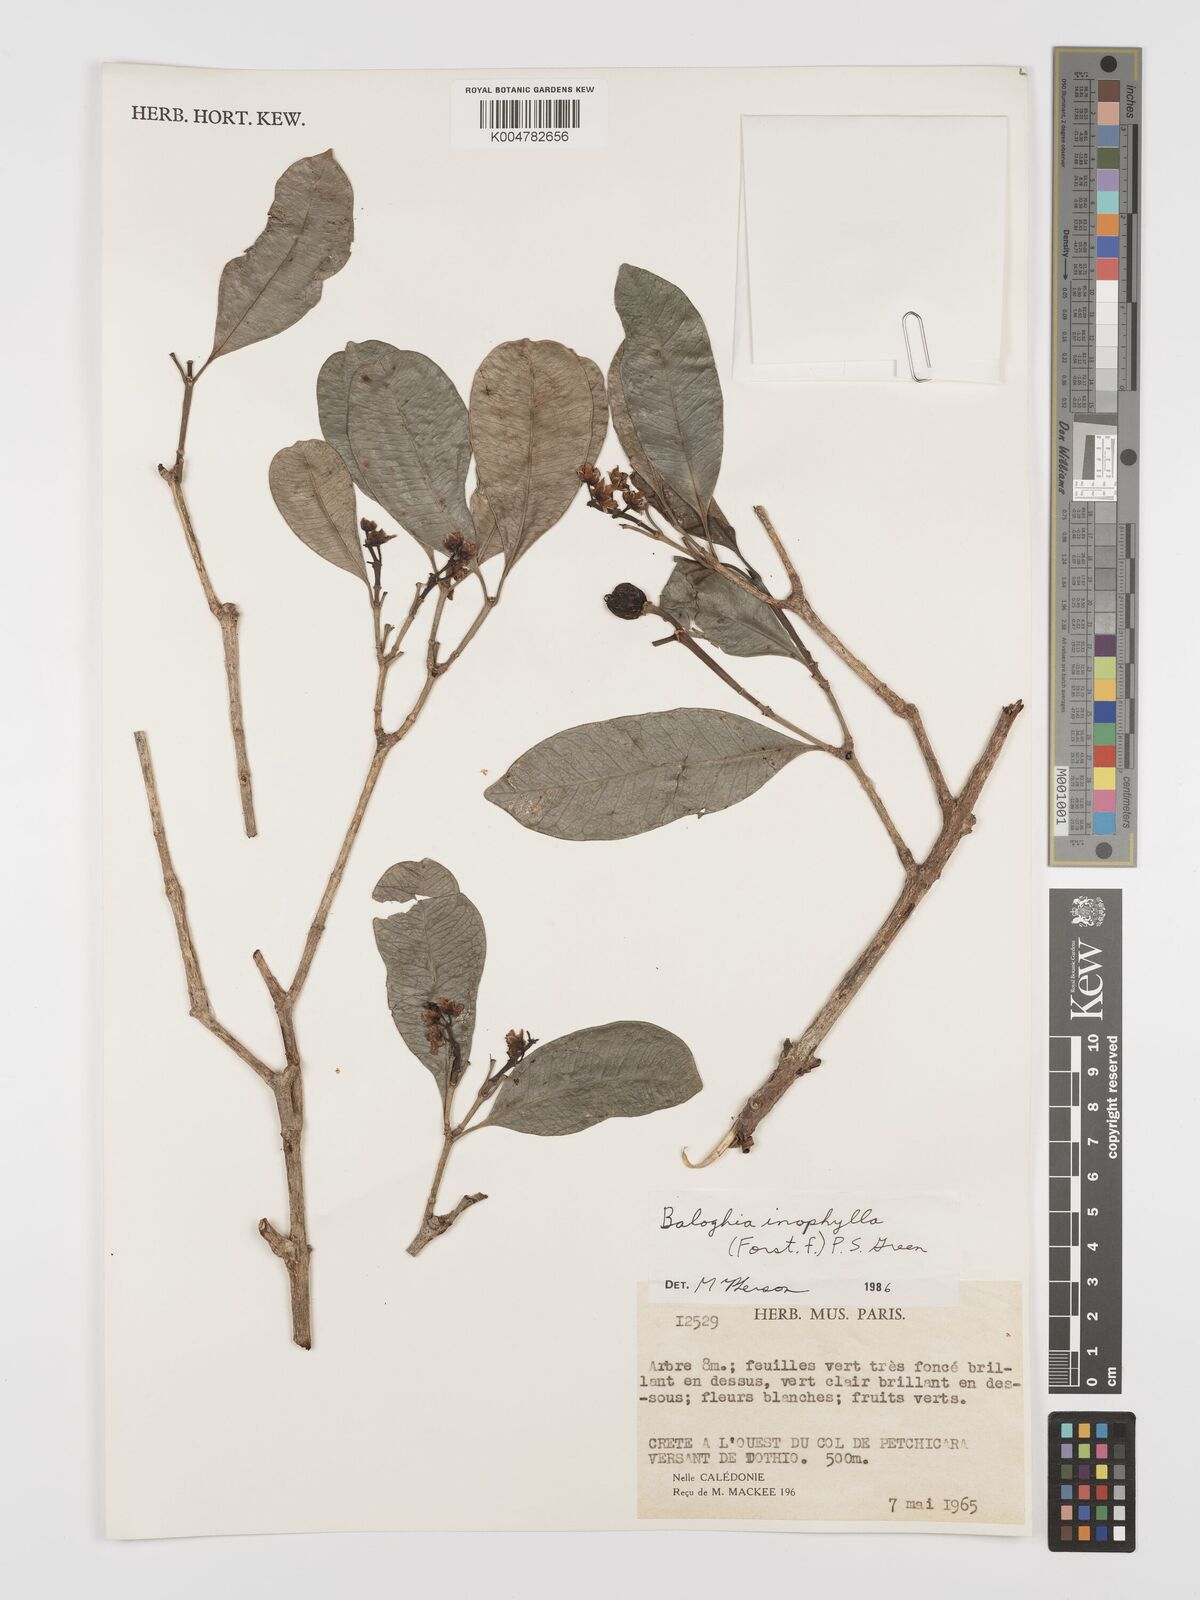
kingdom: Plantae
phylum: Tracheophyta
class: Magnoliopsida
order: Malpighiales
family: Euphorbiaceae
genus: Baloghia
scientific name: Baloghia inophylla
